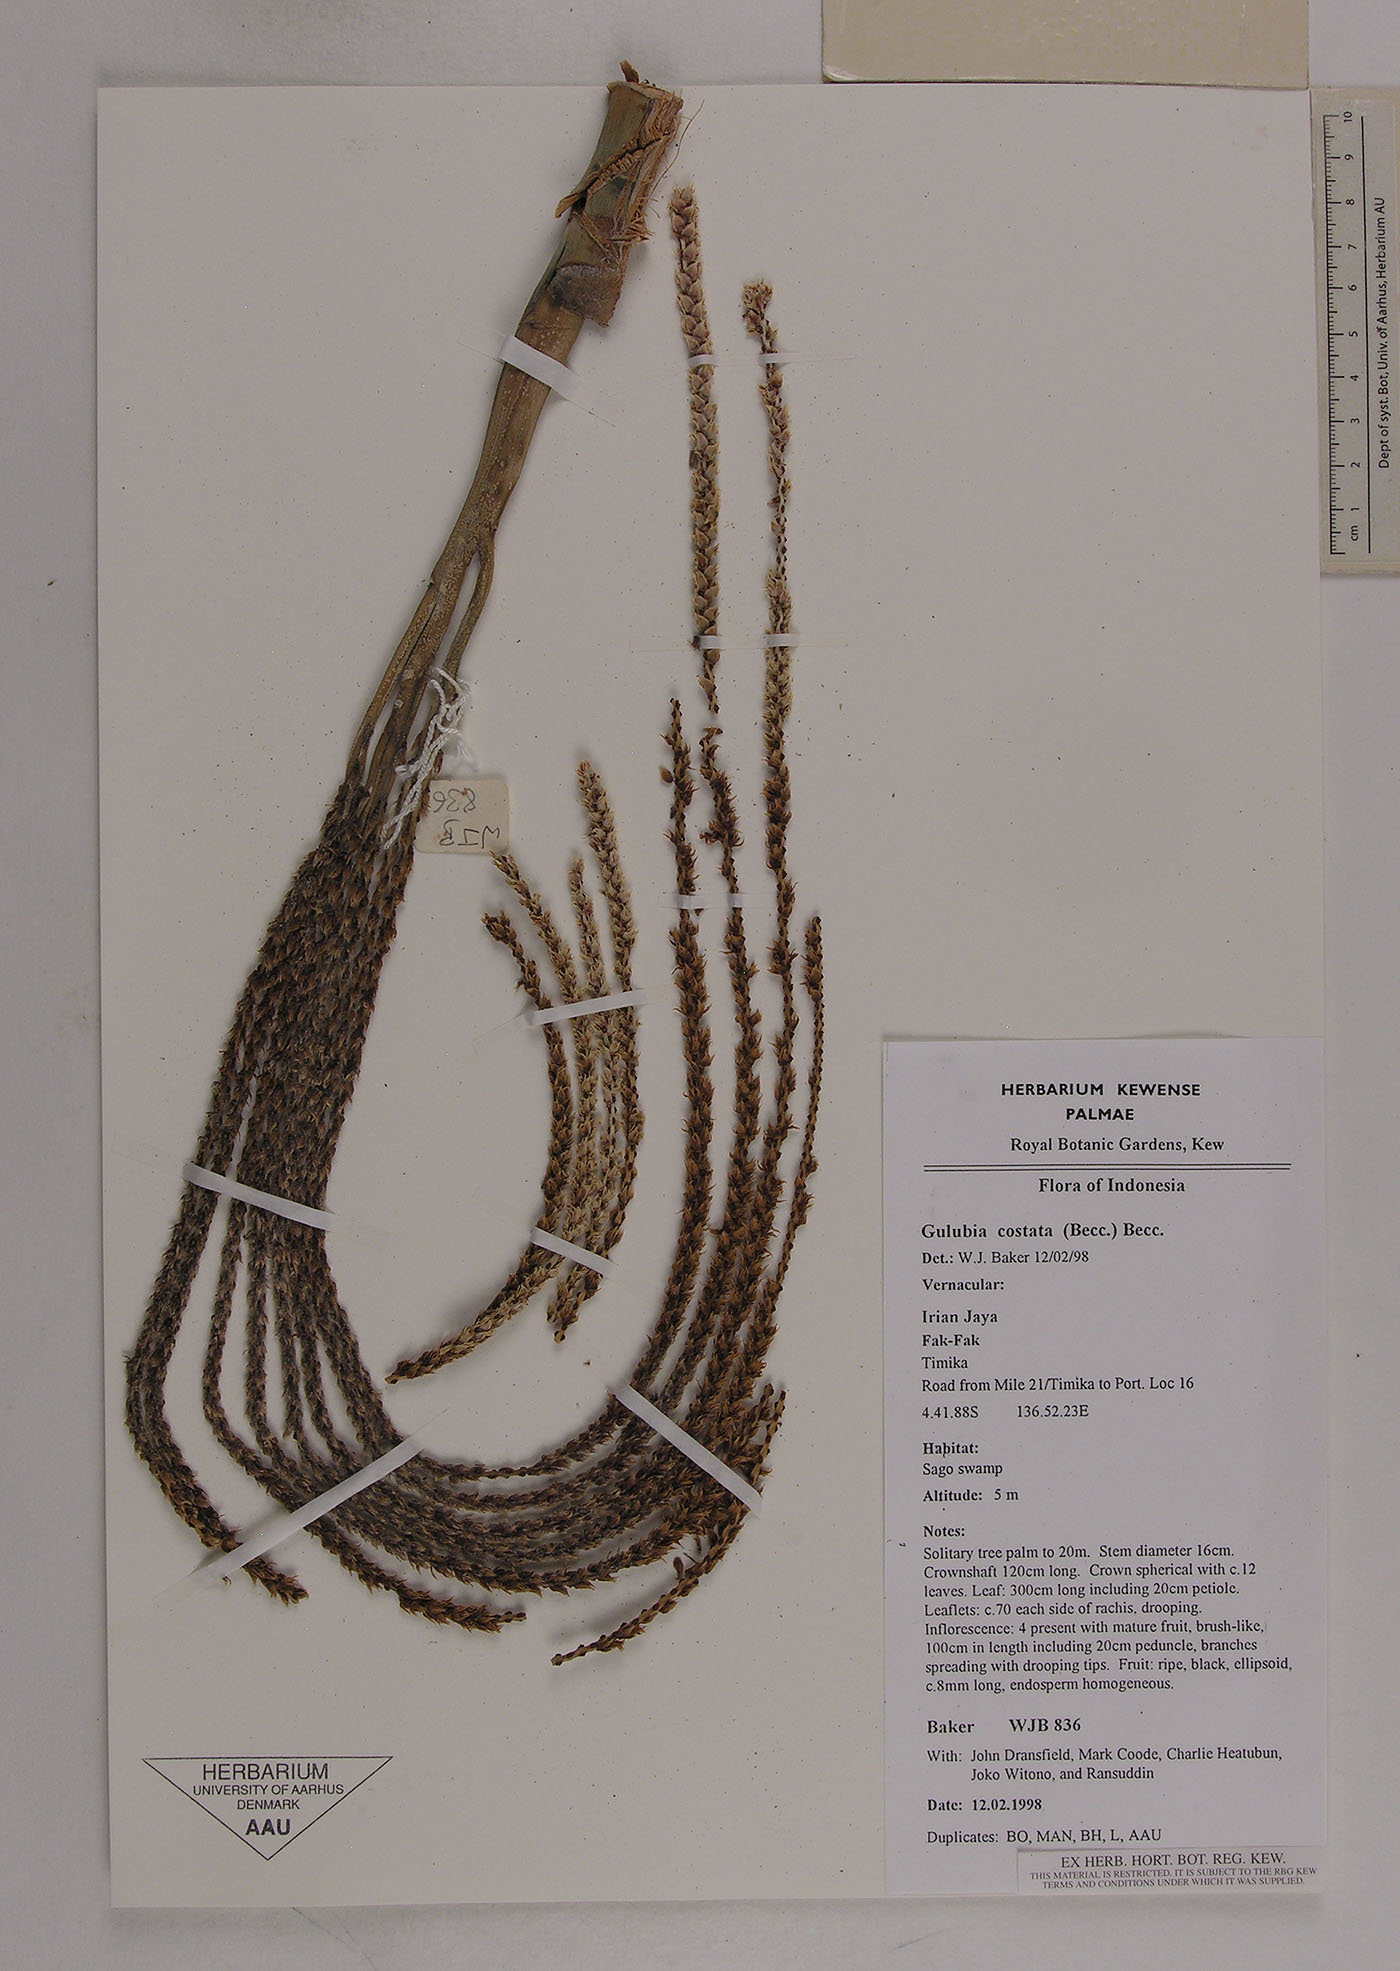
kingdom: Plantae
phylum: Tracheophyta
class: Liliopsida
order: Arecales
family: Arecaceae
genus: Hydriastele
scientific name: Hydriastele costata
